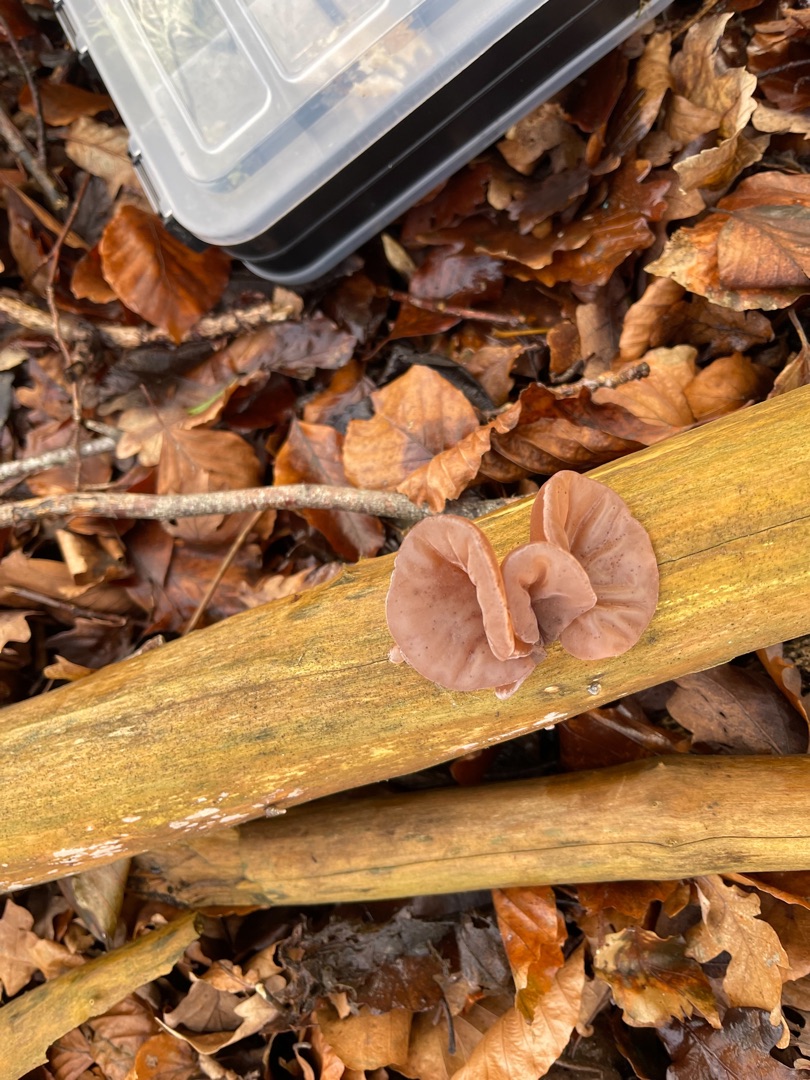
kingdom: Fungi
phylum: Basidiomycota
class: Agaricomycetes
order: Auriculariales
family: Auriculariaceae
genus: Auricularia
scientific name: Auricularia auricula-judae
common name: Almindelig judasøre
